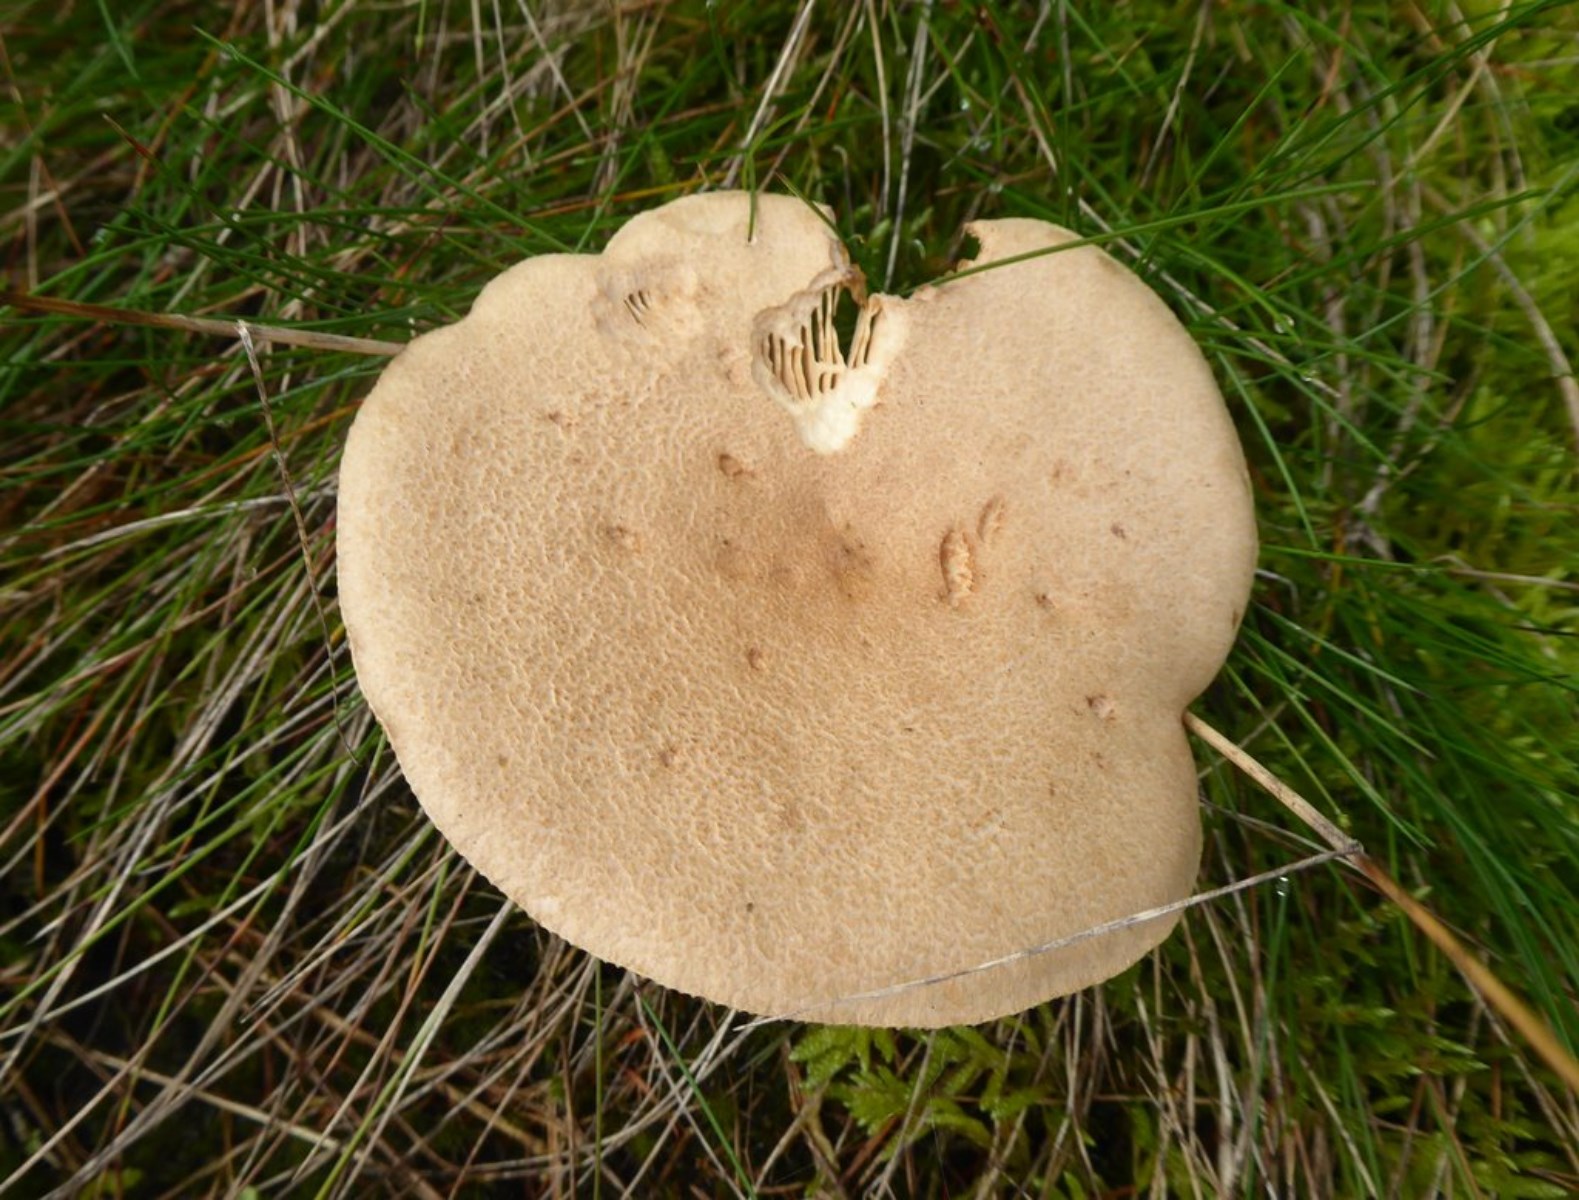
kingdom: Fungi
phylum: Basidiomycota
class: Agaricomycetes
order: Russulales
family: Russulaceae
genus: Lactarius
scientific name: Lactarius helvus
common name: mose-mælkehat
